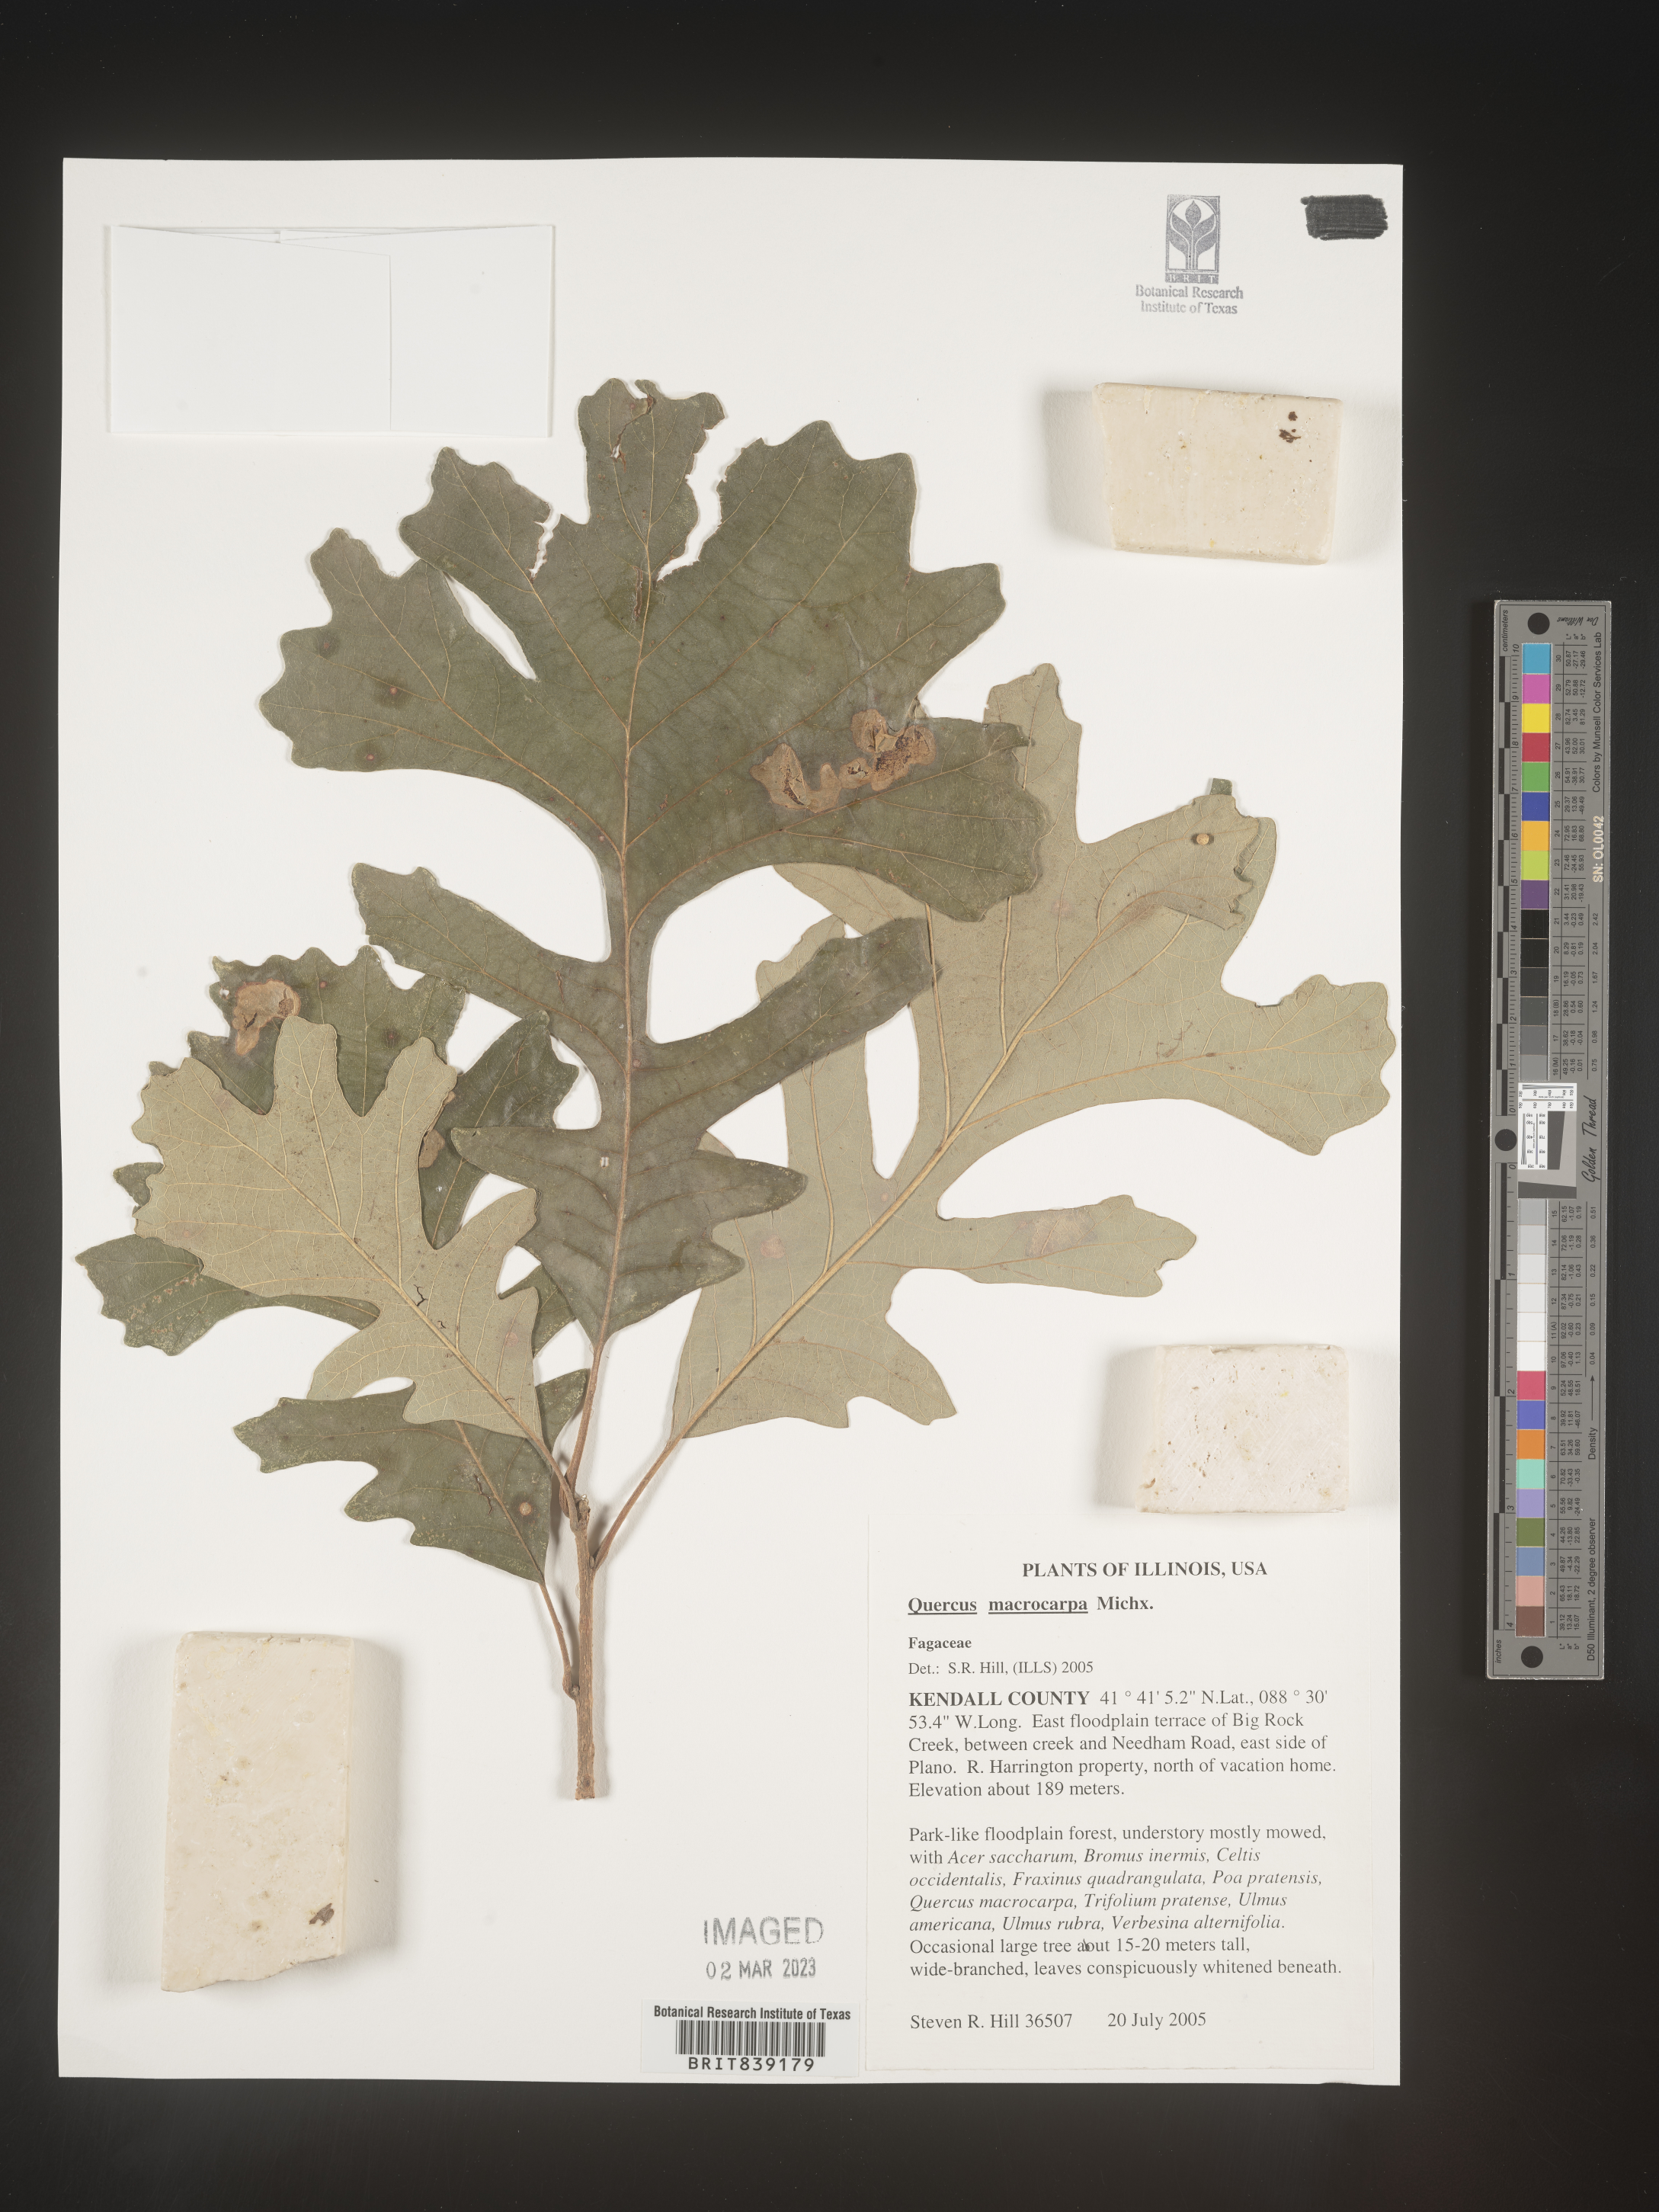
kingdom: Plantae
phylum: Tracheophyta
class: Magnoliopsida
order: Fagales
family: Fagaceae
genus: Quercus
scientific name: Quercus macrocarpa
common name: Bur oak
